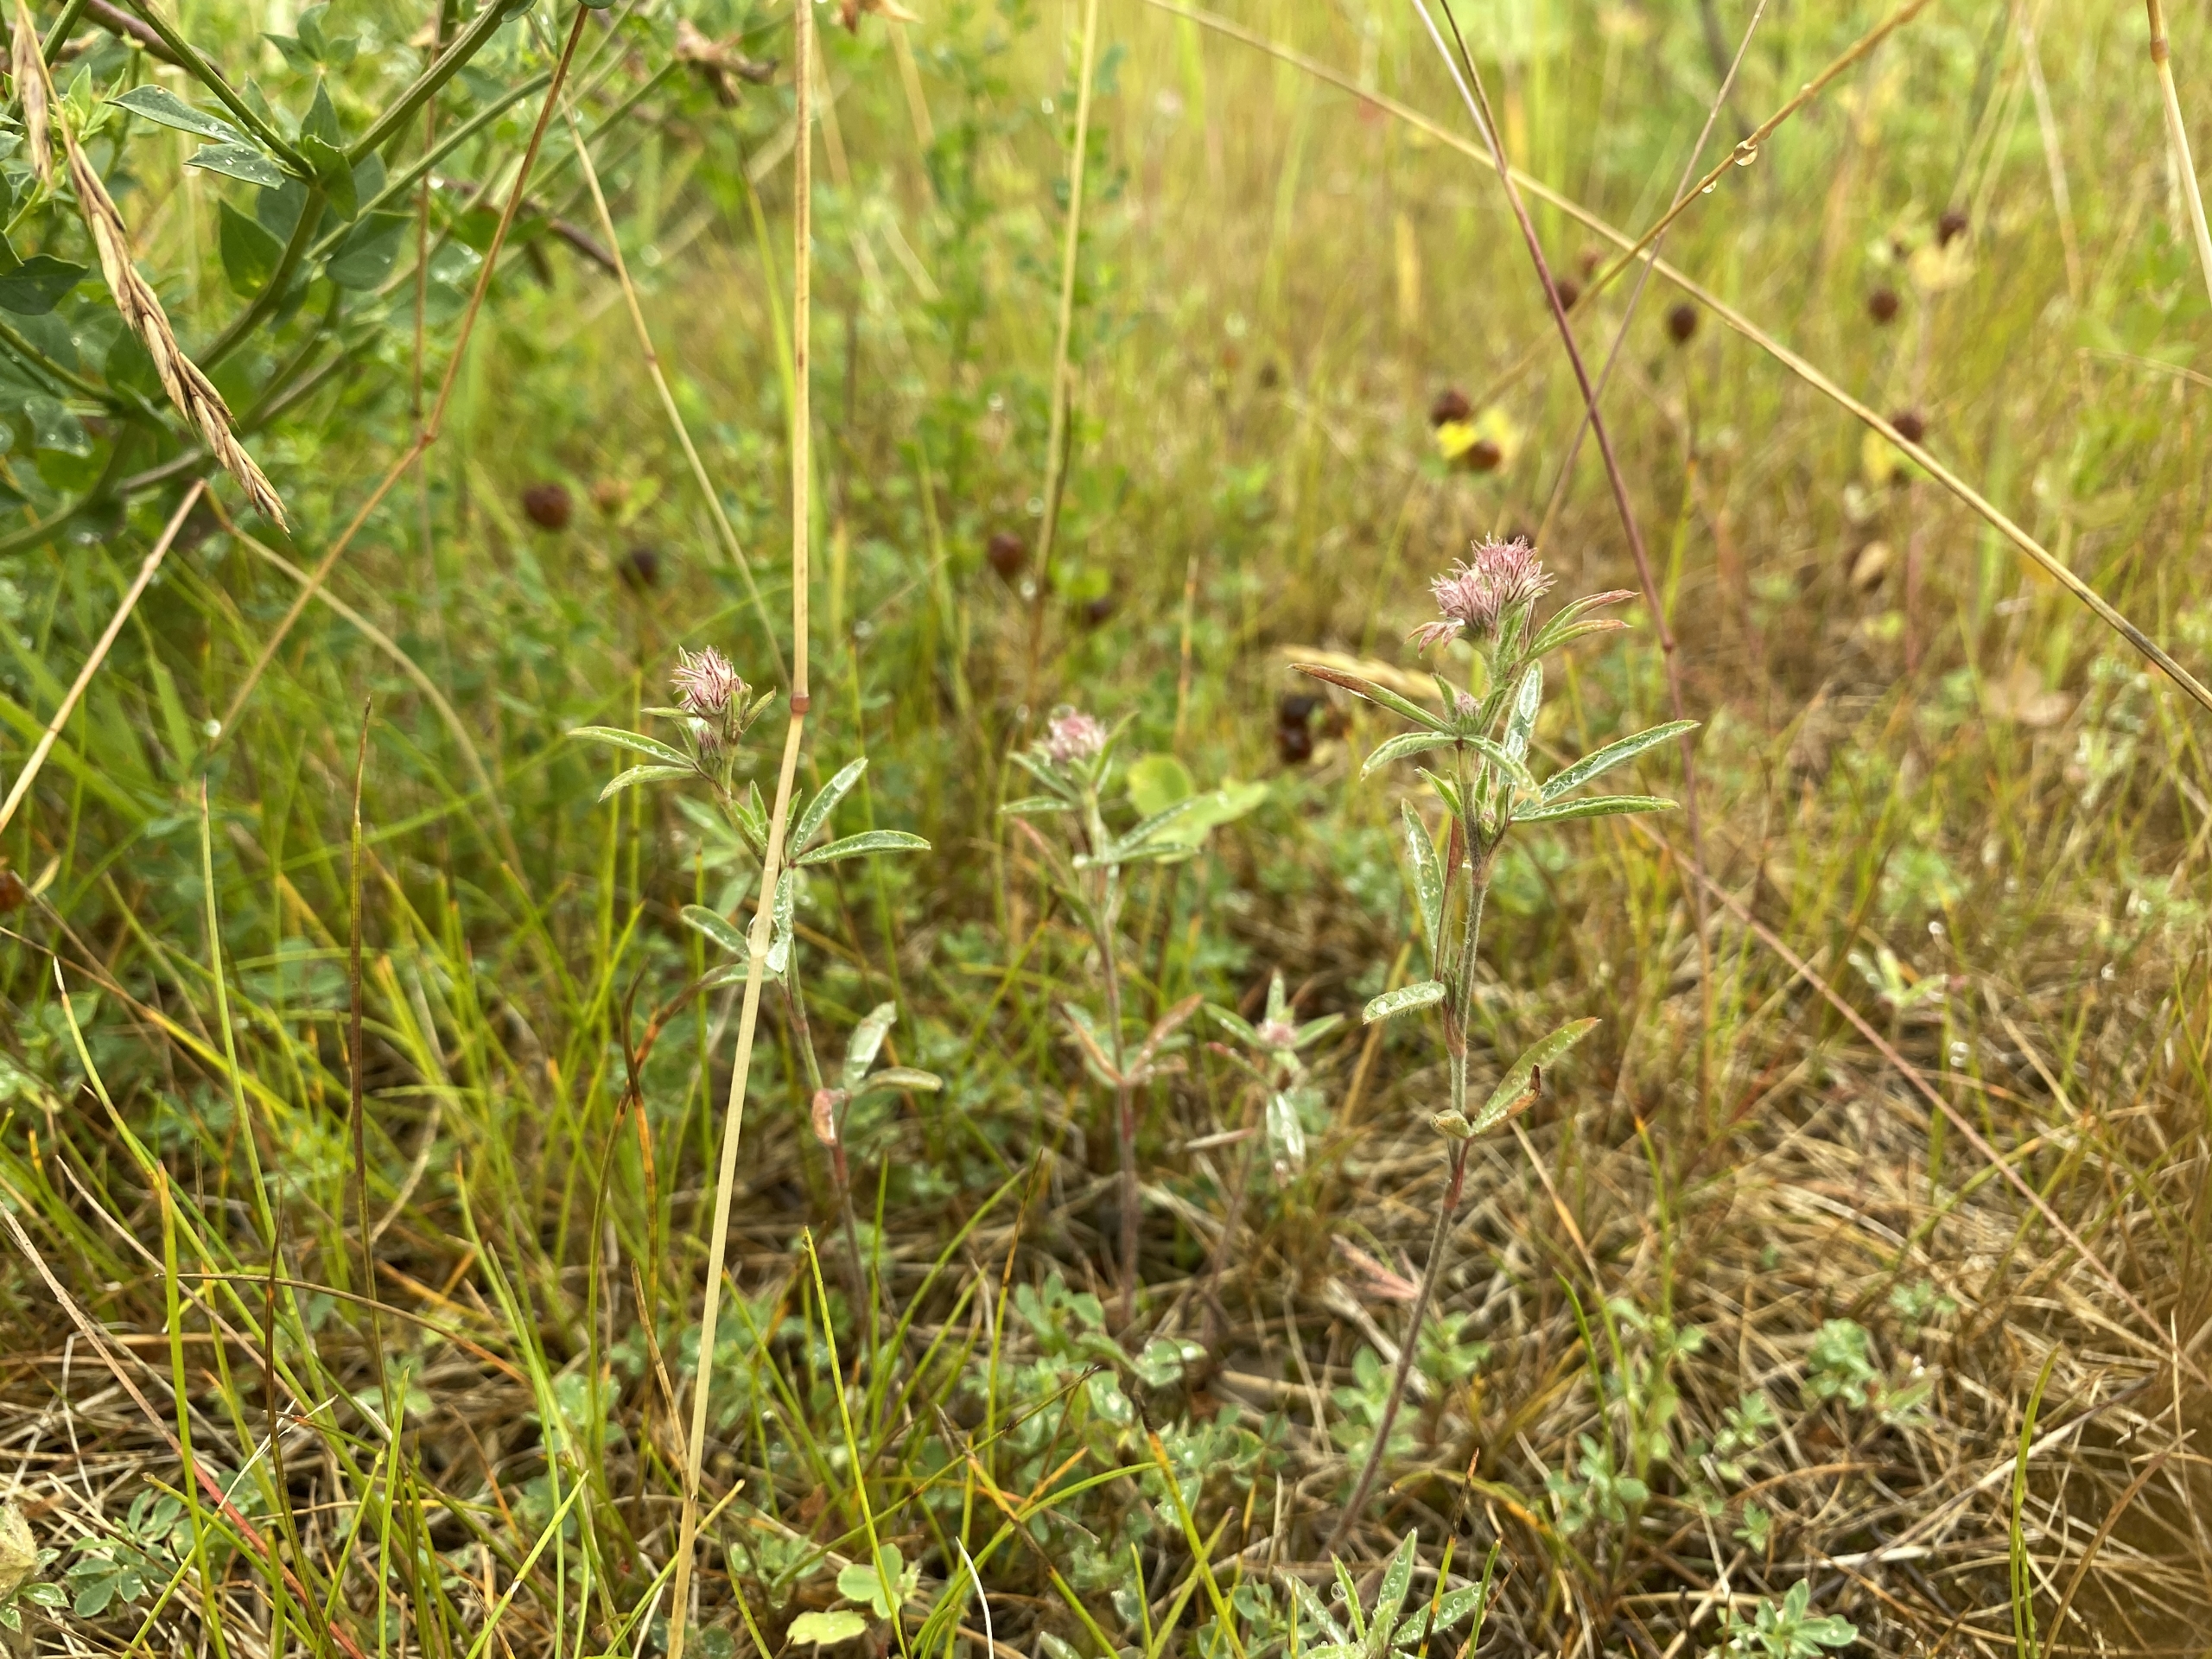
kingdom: Plantae
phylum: Tracheophyta
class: Magnoliopsida
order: Fabales
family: Fabaceae
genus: Trifolium
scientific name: Trifolium arvense
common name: Hare-kløver
